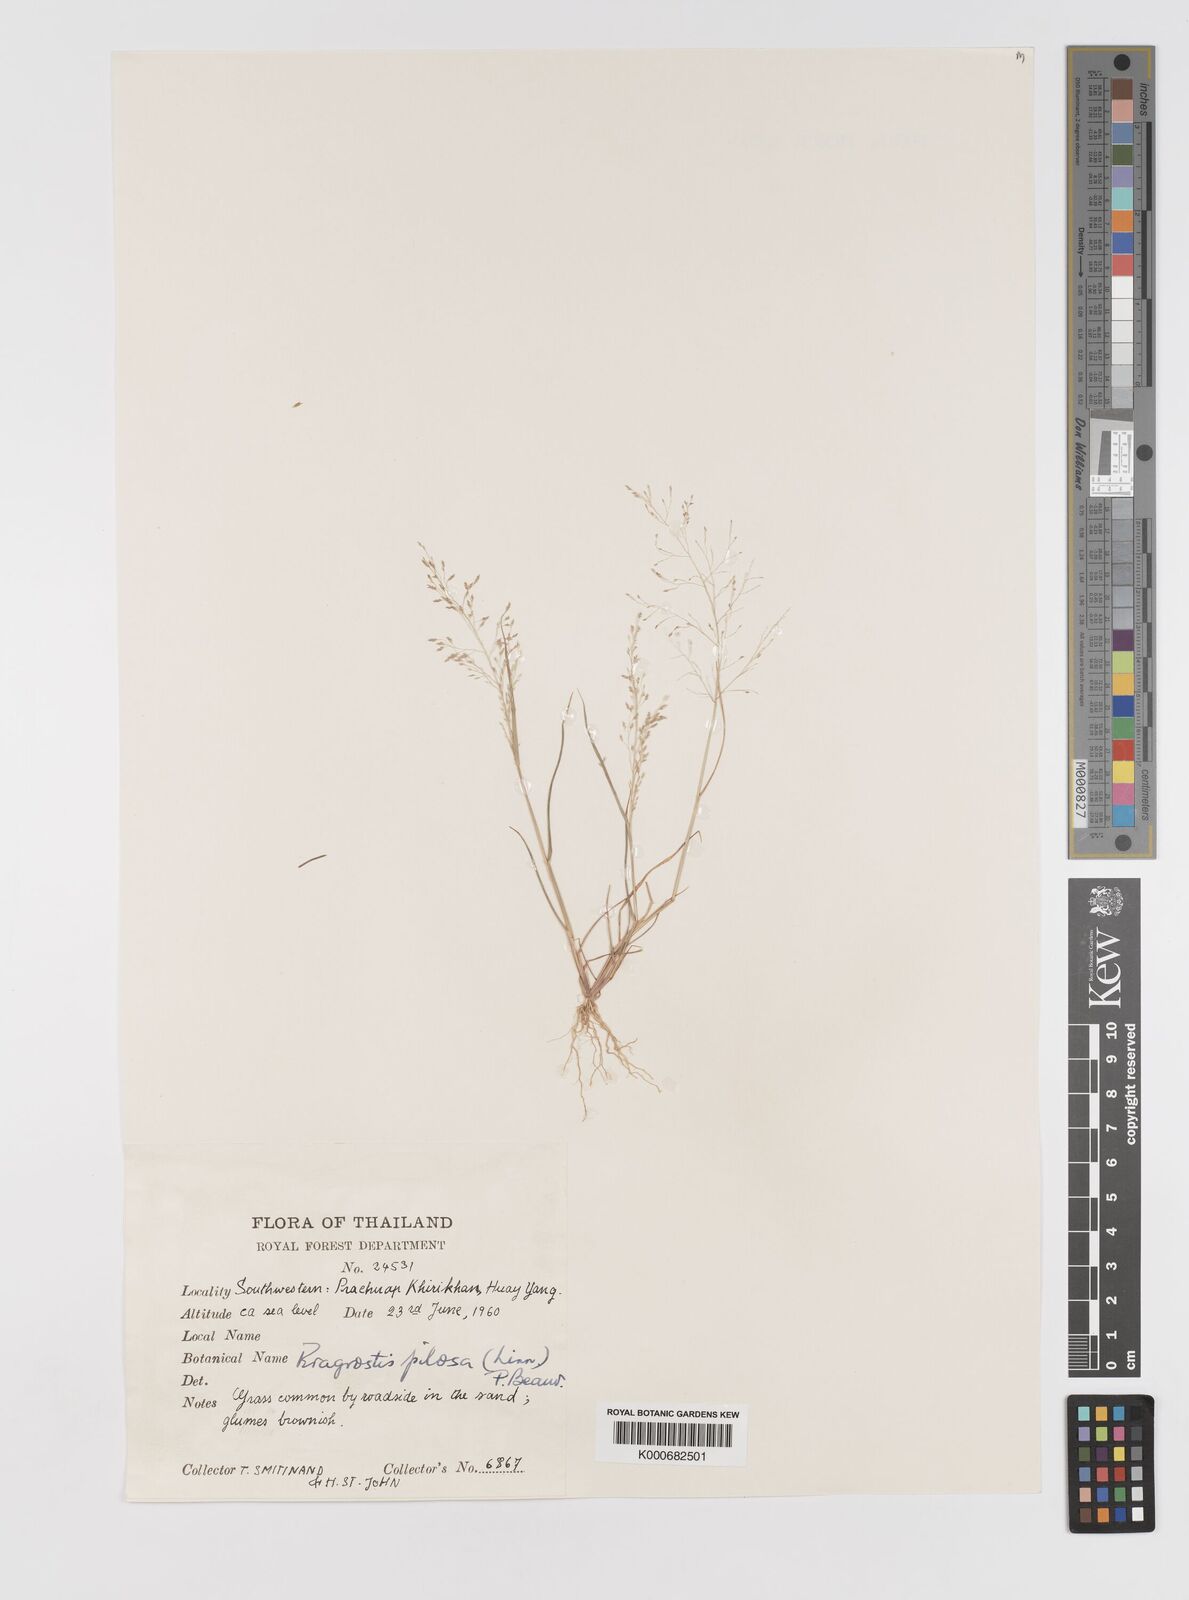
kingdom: Plantae
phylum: Tracheophyta
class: Liliopsida
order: Poales
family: Poaceae
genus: Eragrostis
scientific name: Eragrostis pilosa
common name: Indian lovegrass
